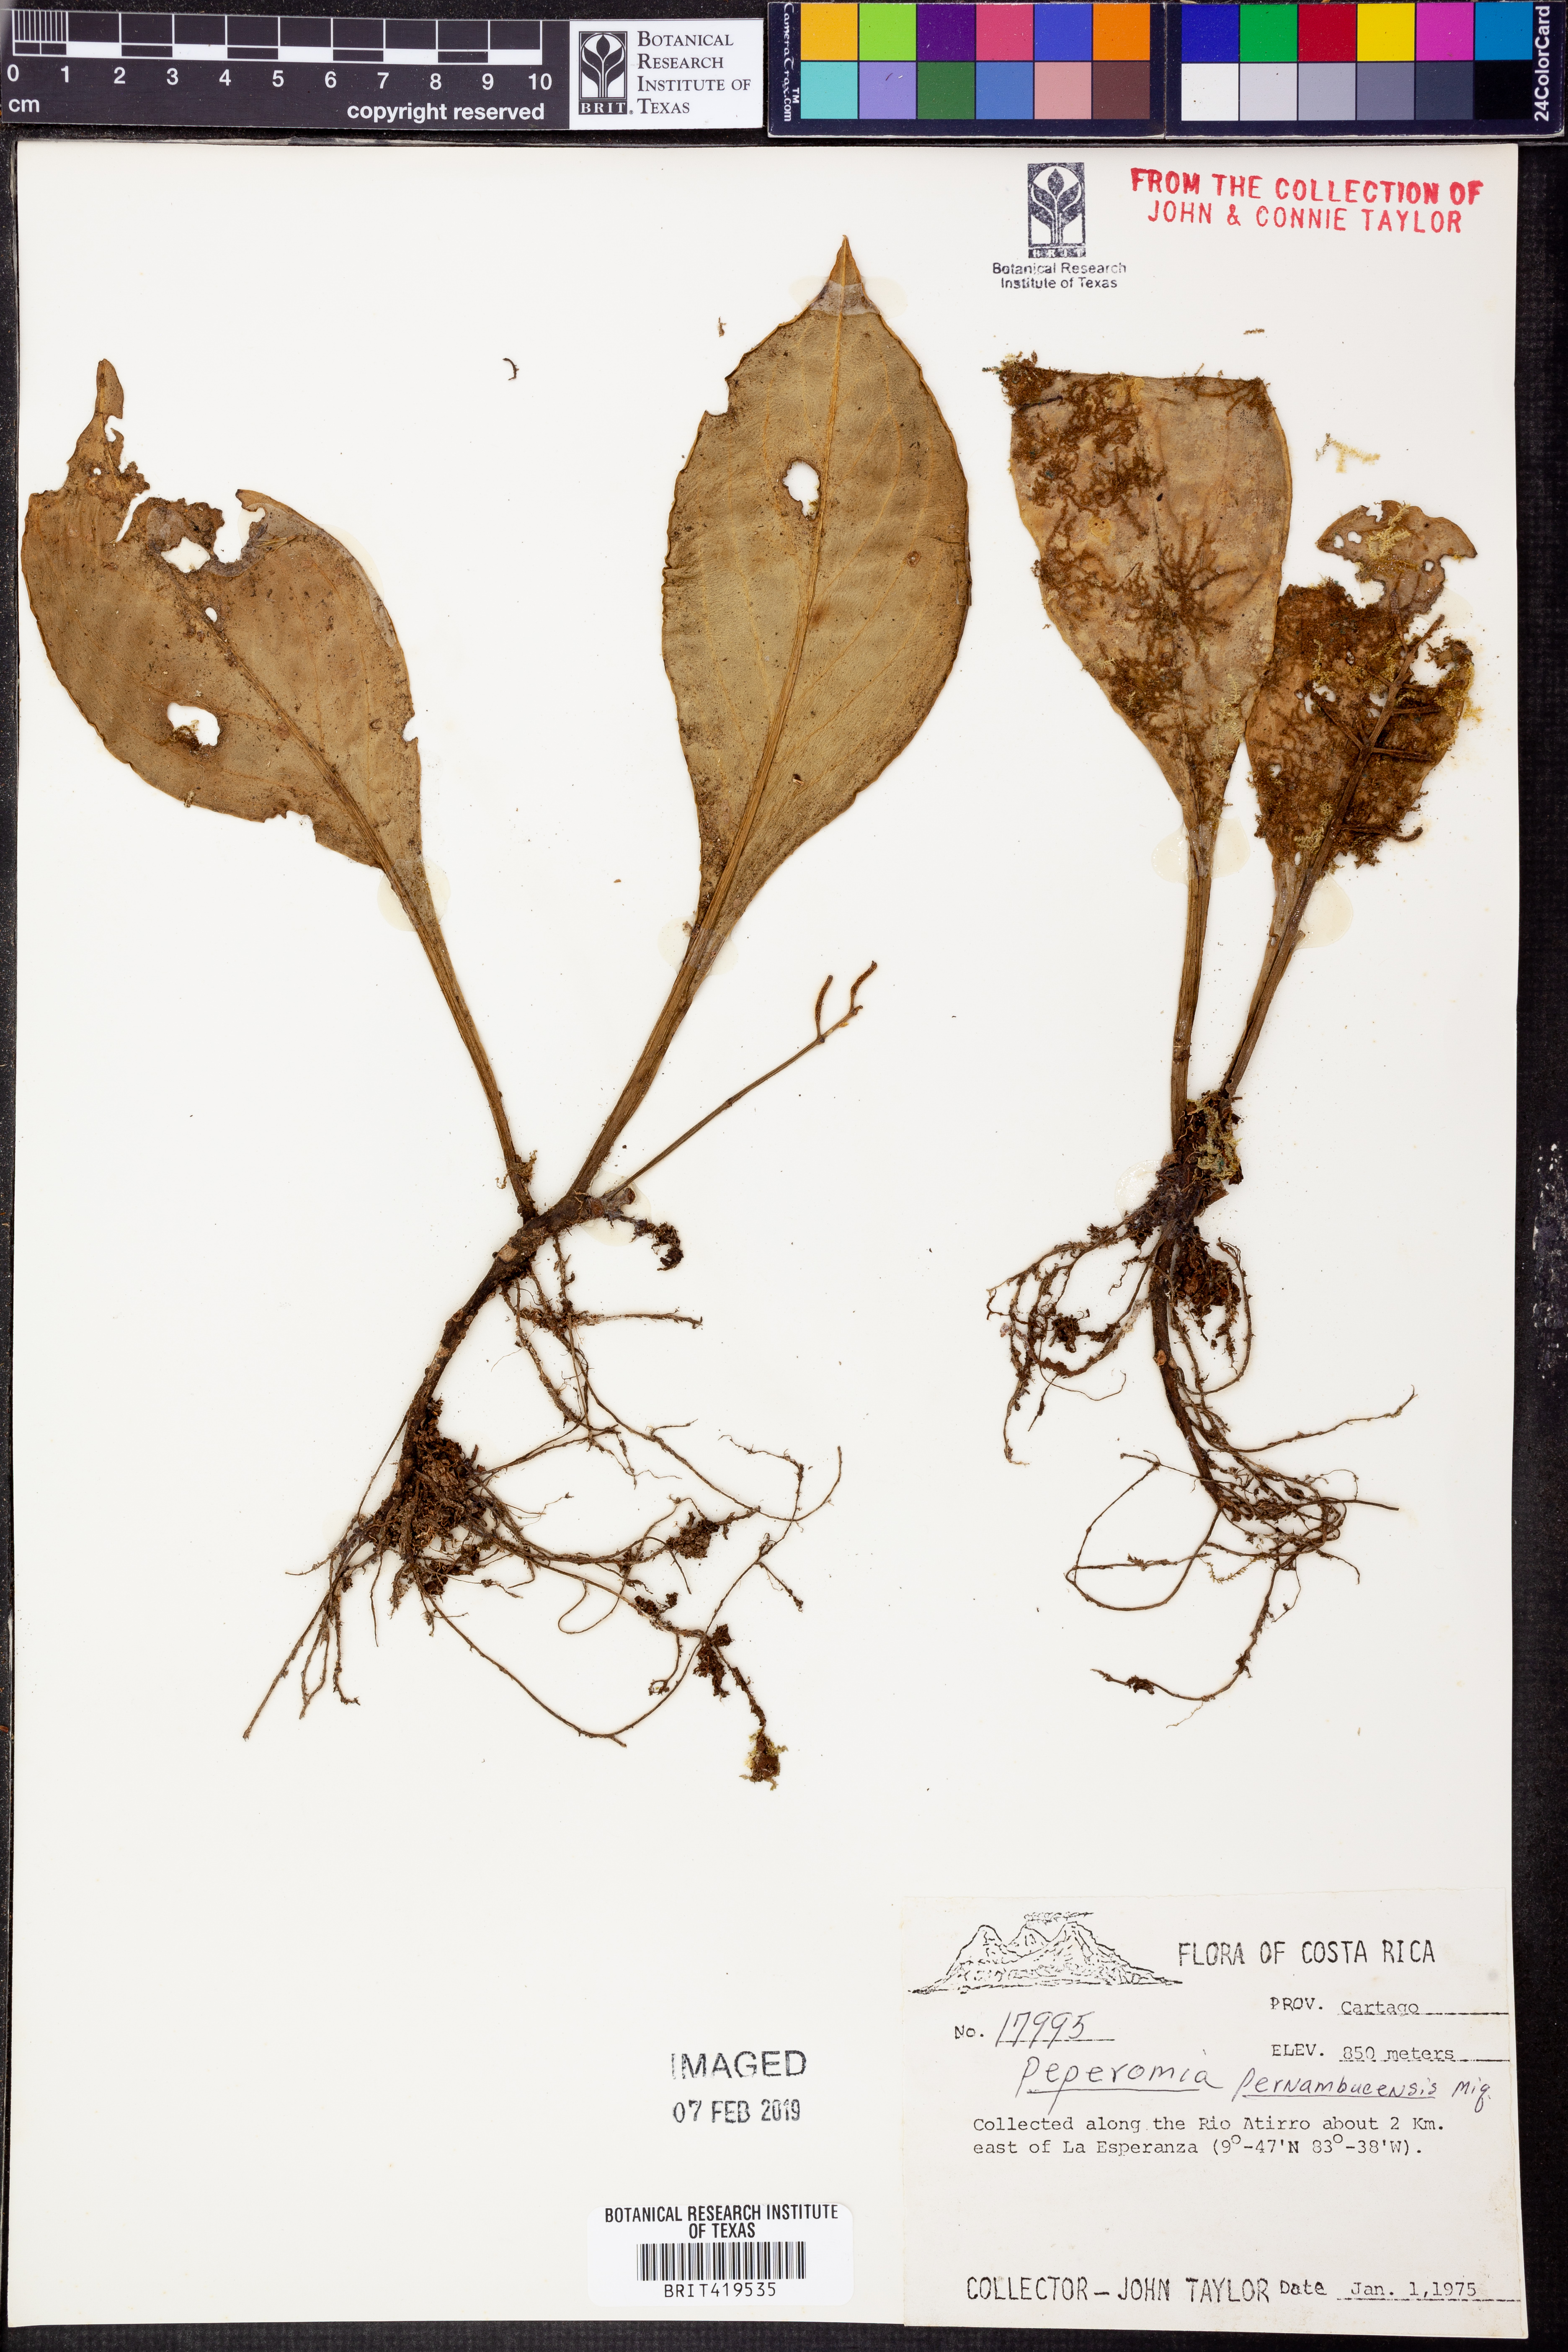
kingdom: Plantae
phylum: Tracheophyta
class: Magnoliopsida
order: Piperales
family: Piperaceae
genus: Peperomia
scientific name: Peperomia pernambucensis
